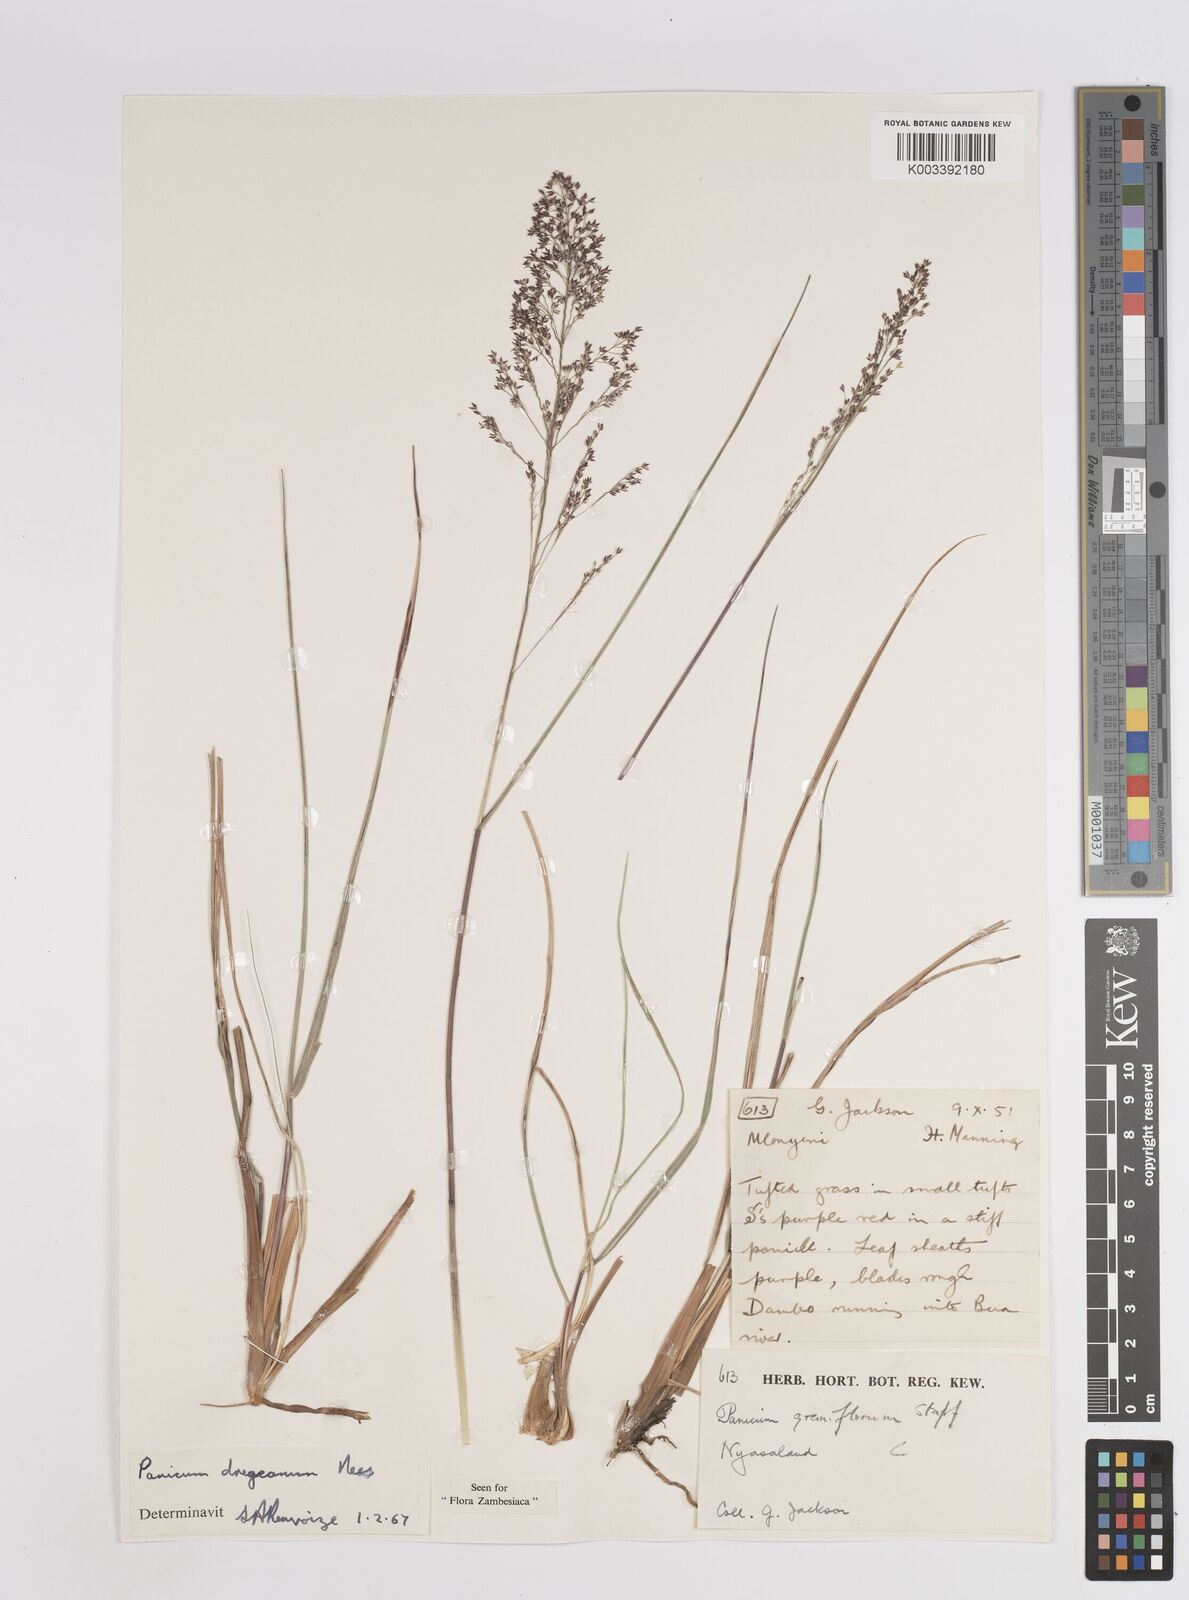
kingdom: Plantae
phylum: Tracheophyta
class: Liliopsida
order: Poales
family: Poaceae
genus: Panicum
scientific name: Panicum dregeanum
